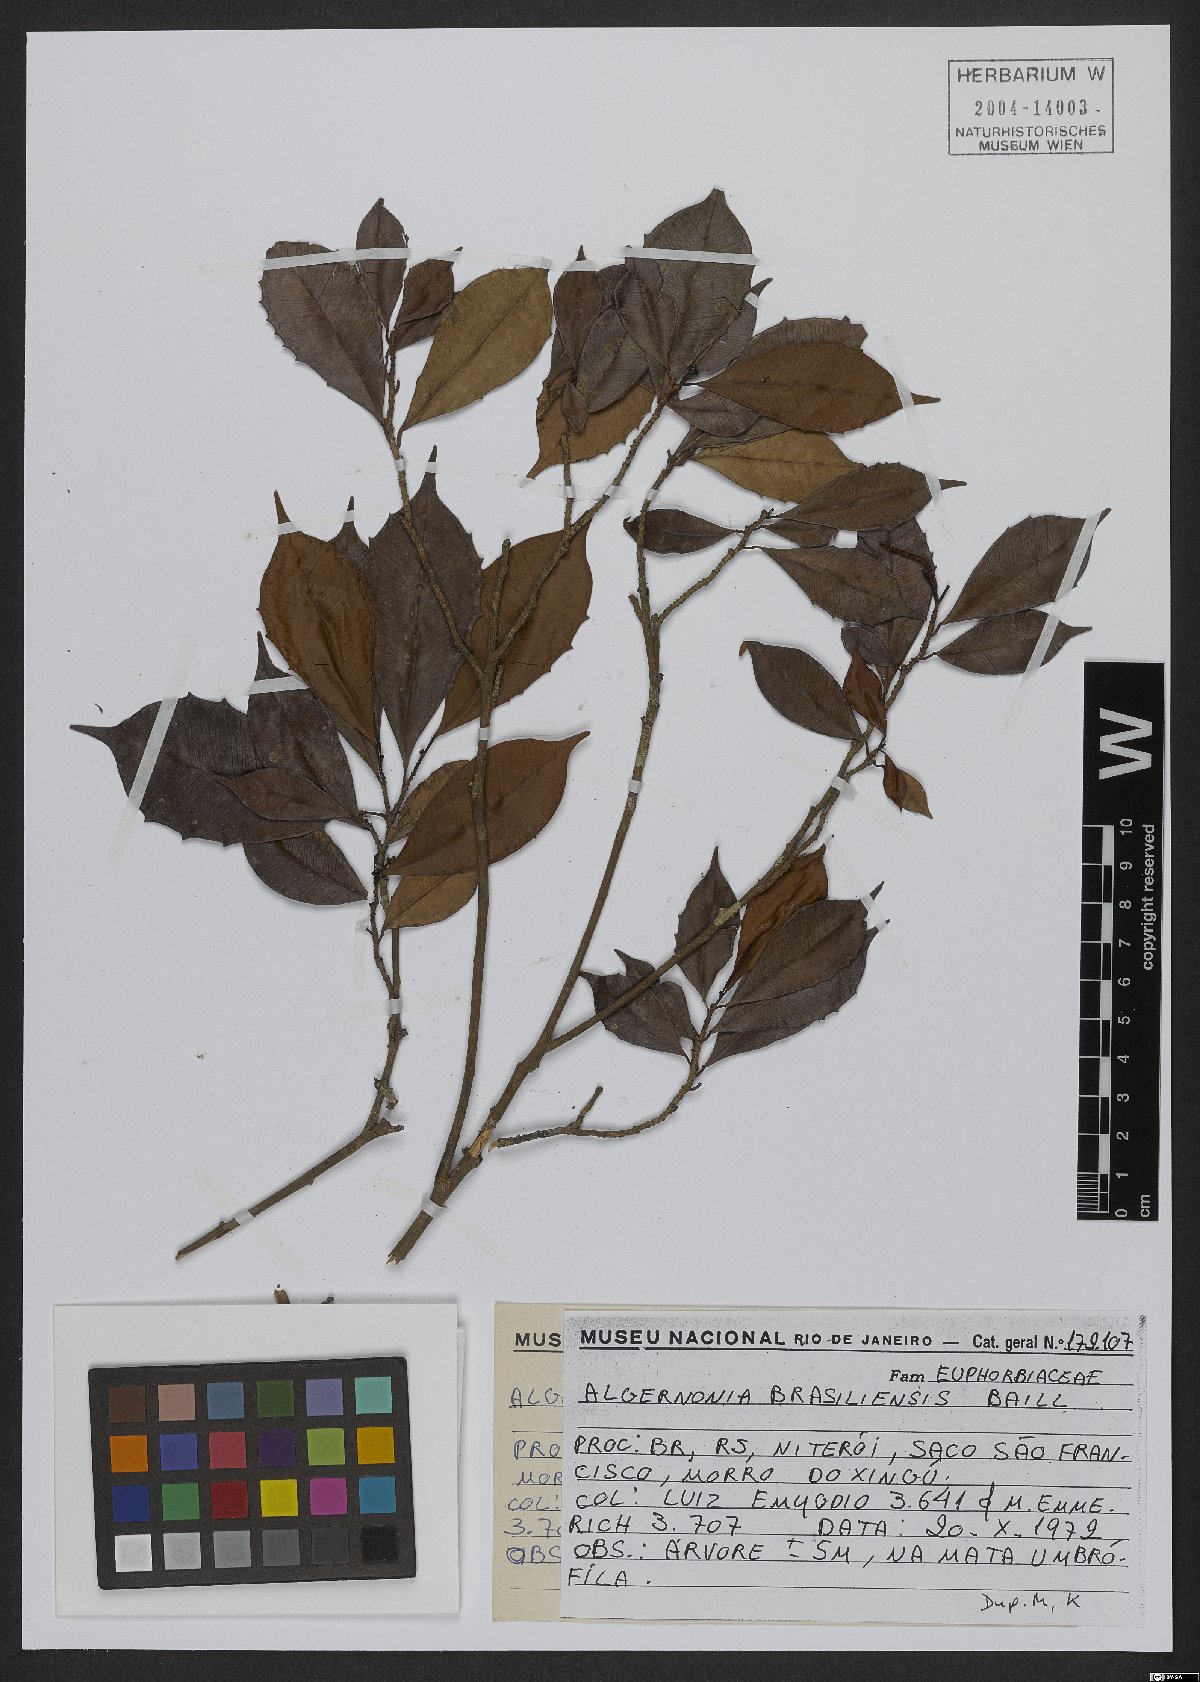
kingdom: Plantae
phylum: Tracheophyta
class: Magnoliopsida
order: Malpighiales
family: Euphorbiaceae
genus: Algernonia
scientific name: Algernonia brasiliensis
